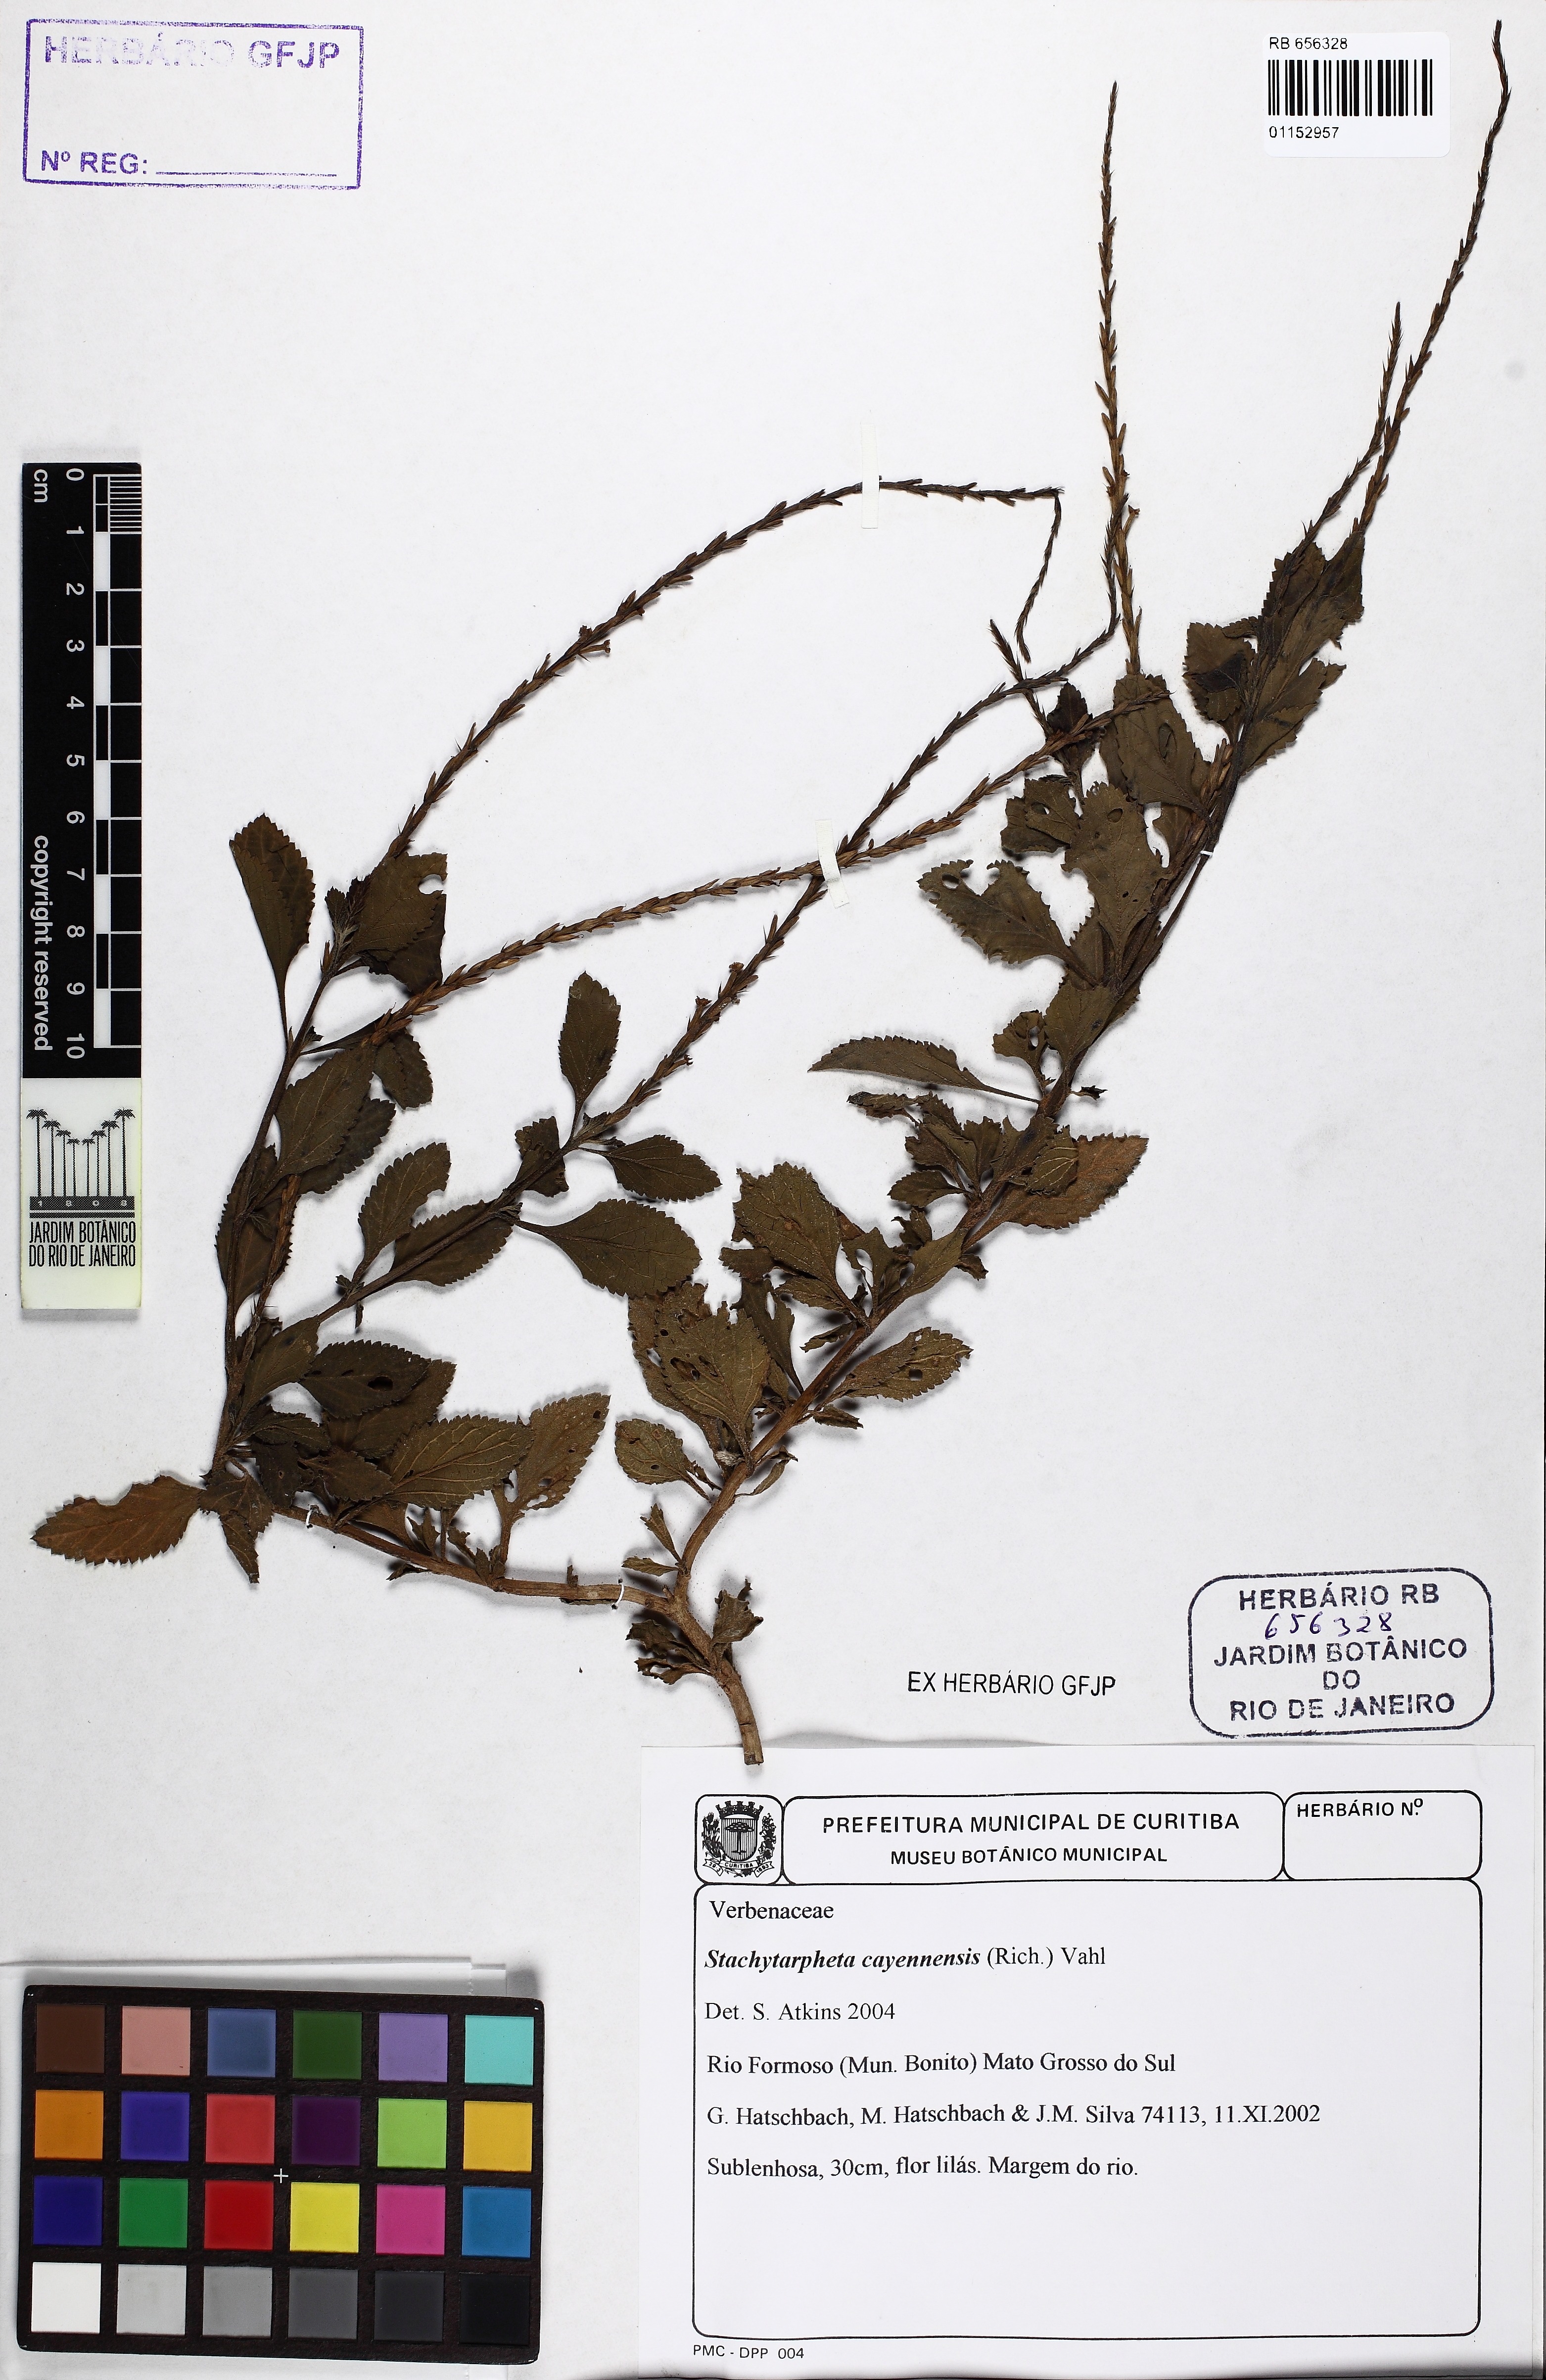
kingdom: Plantae
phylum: Tracheophyta
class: Magnoliopsida
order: Lamiales
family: Verbenaceae
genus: Stachytarpheta
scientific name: Stachytarpheta cayennensis
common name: Cayenne porterweed
